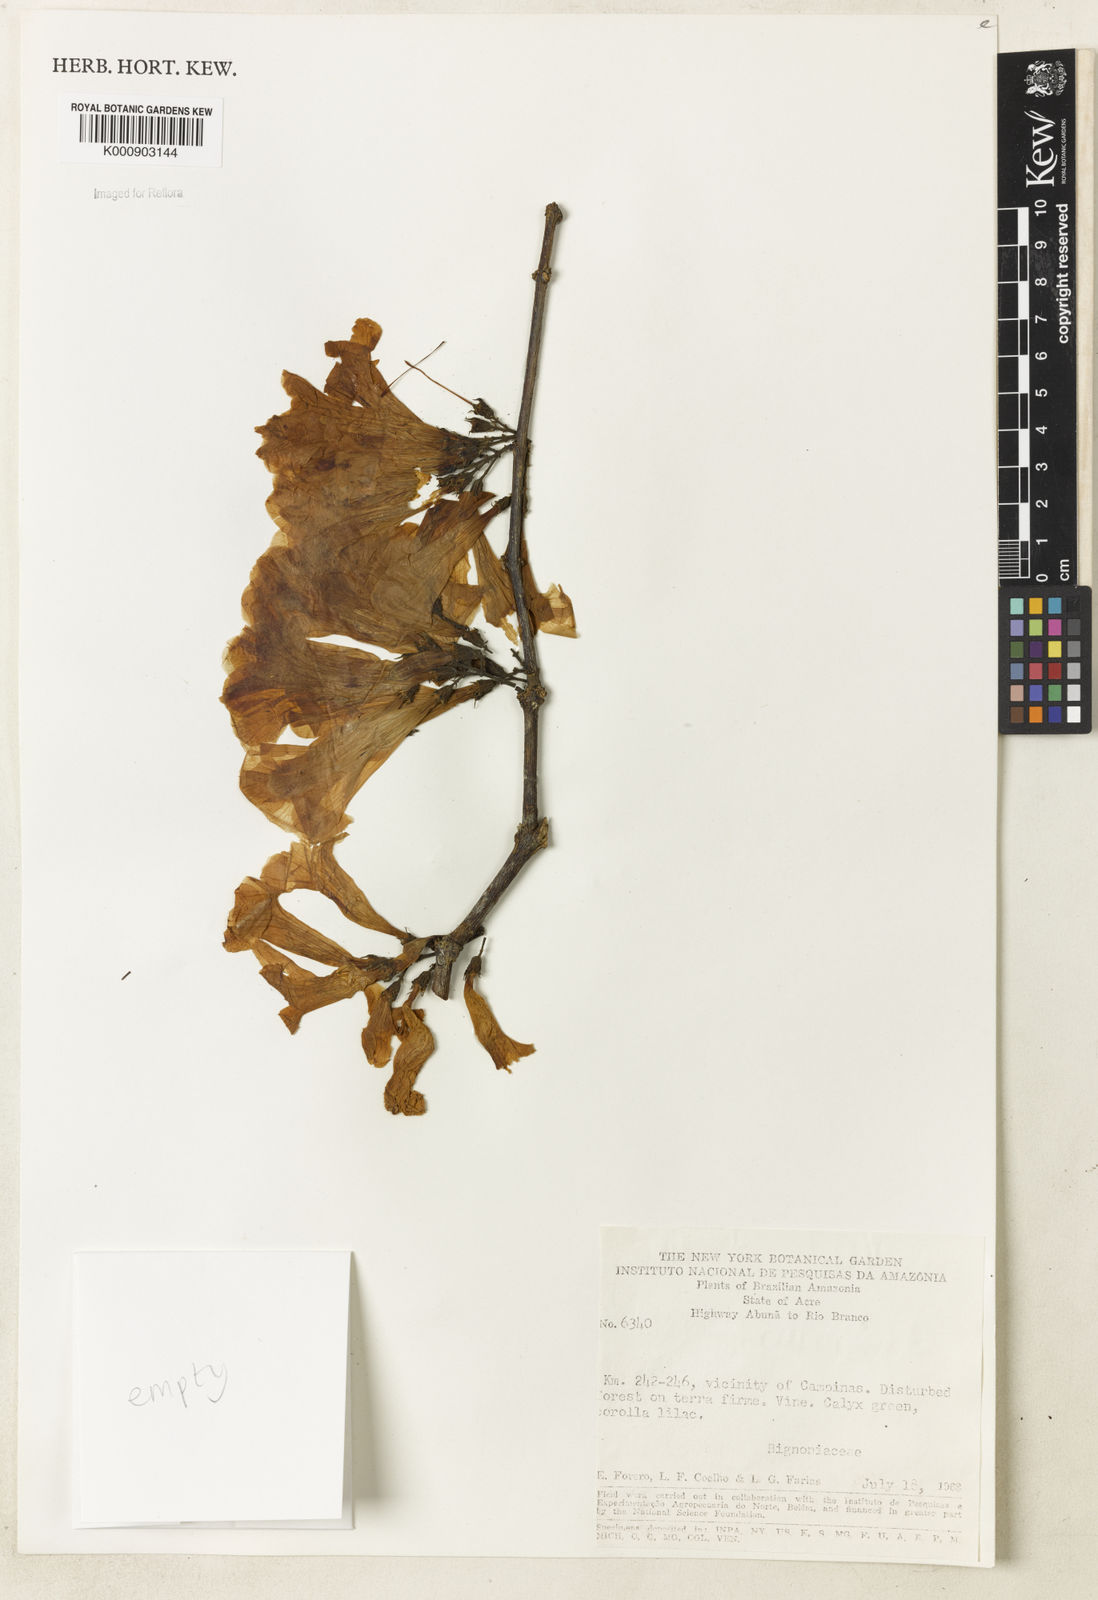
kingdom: Plantae
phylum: Tracheophyta
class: Magnoliopsida
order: Lamiales
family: Bignoniaceae
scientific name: Bignoniaceae
